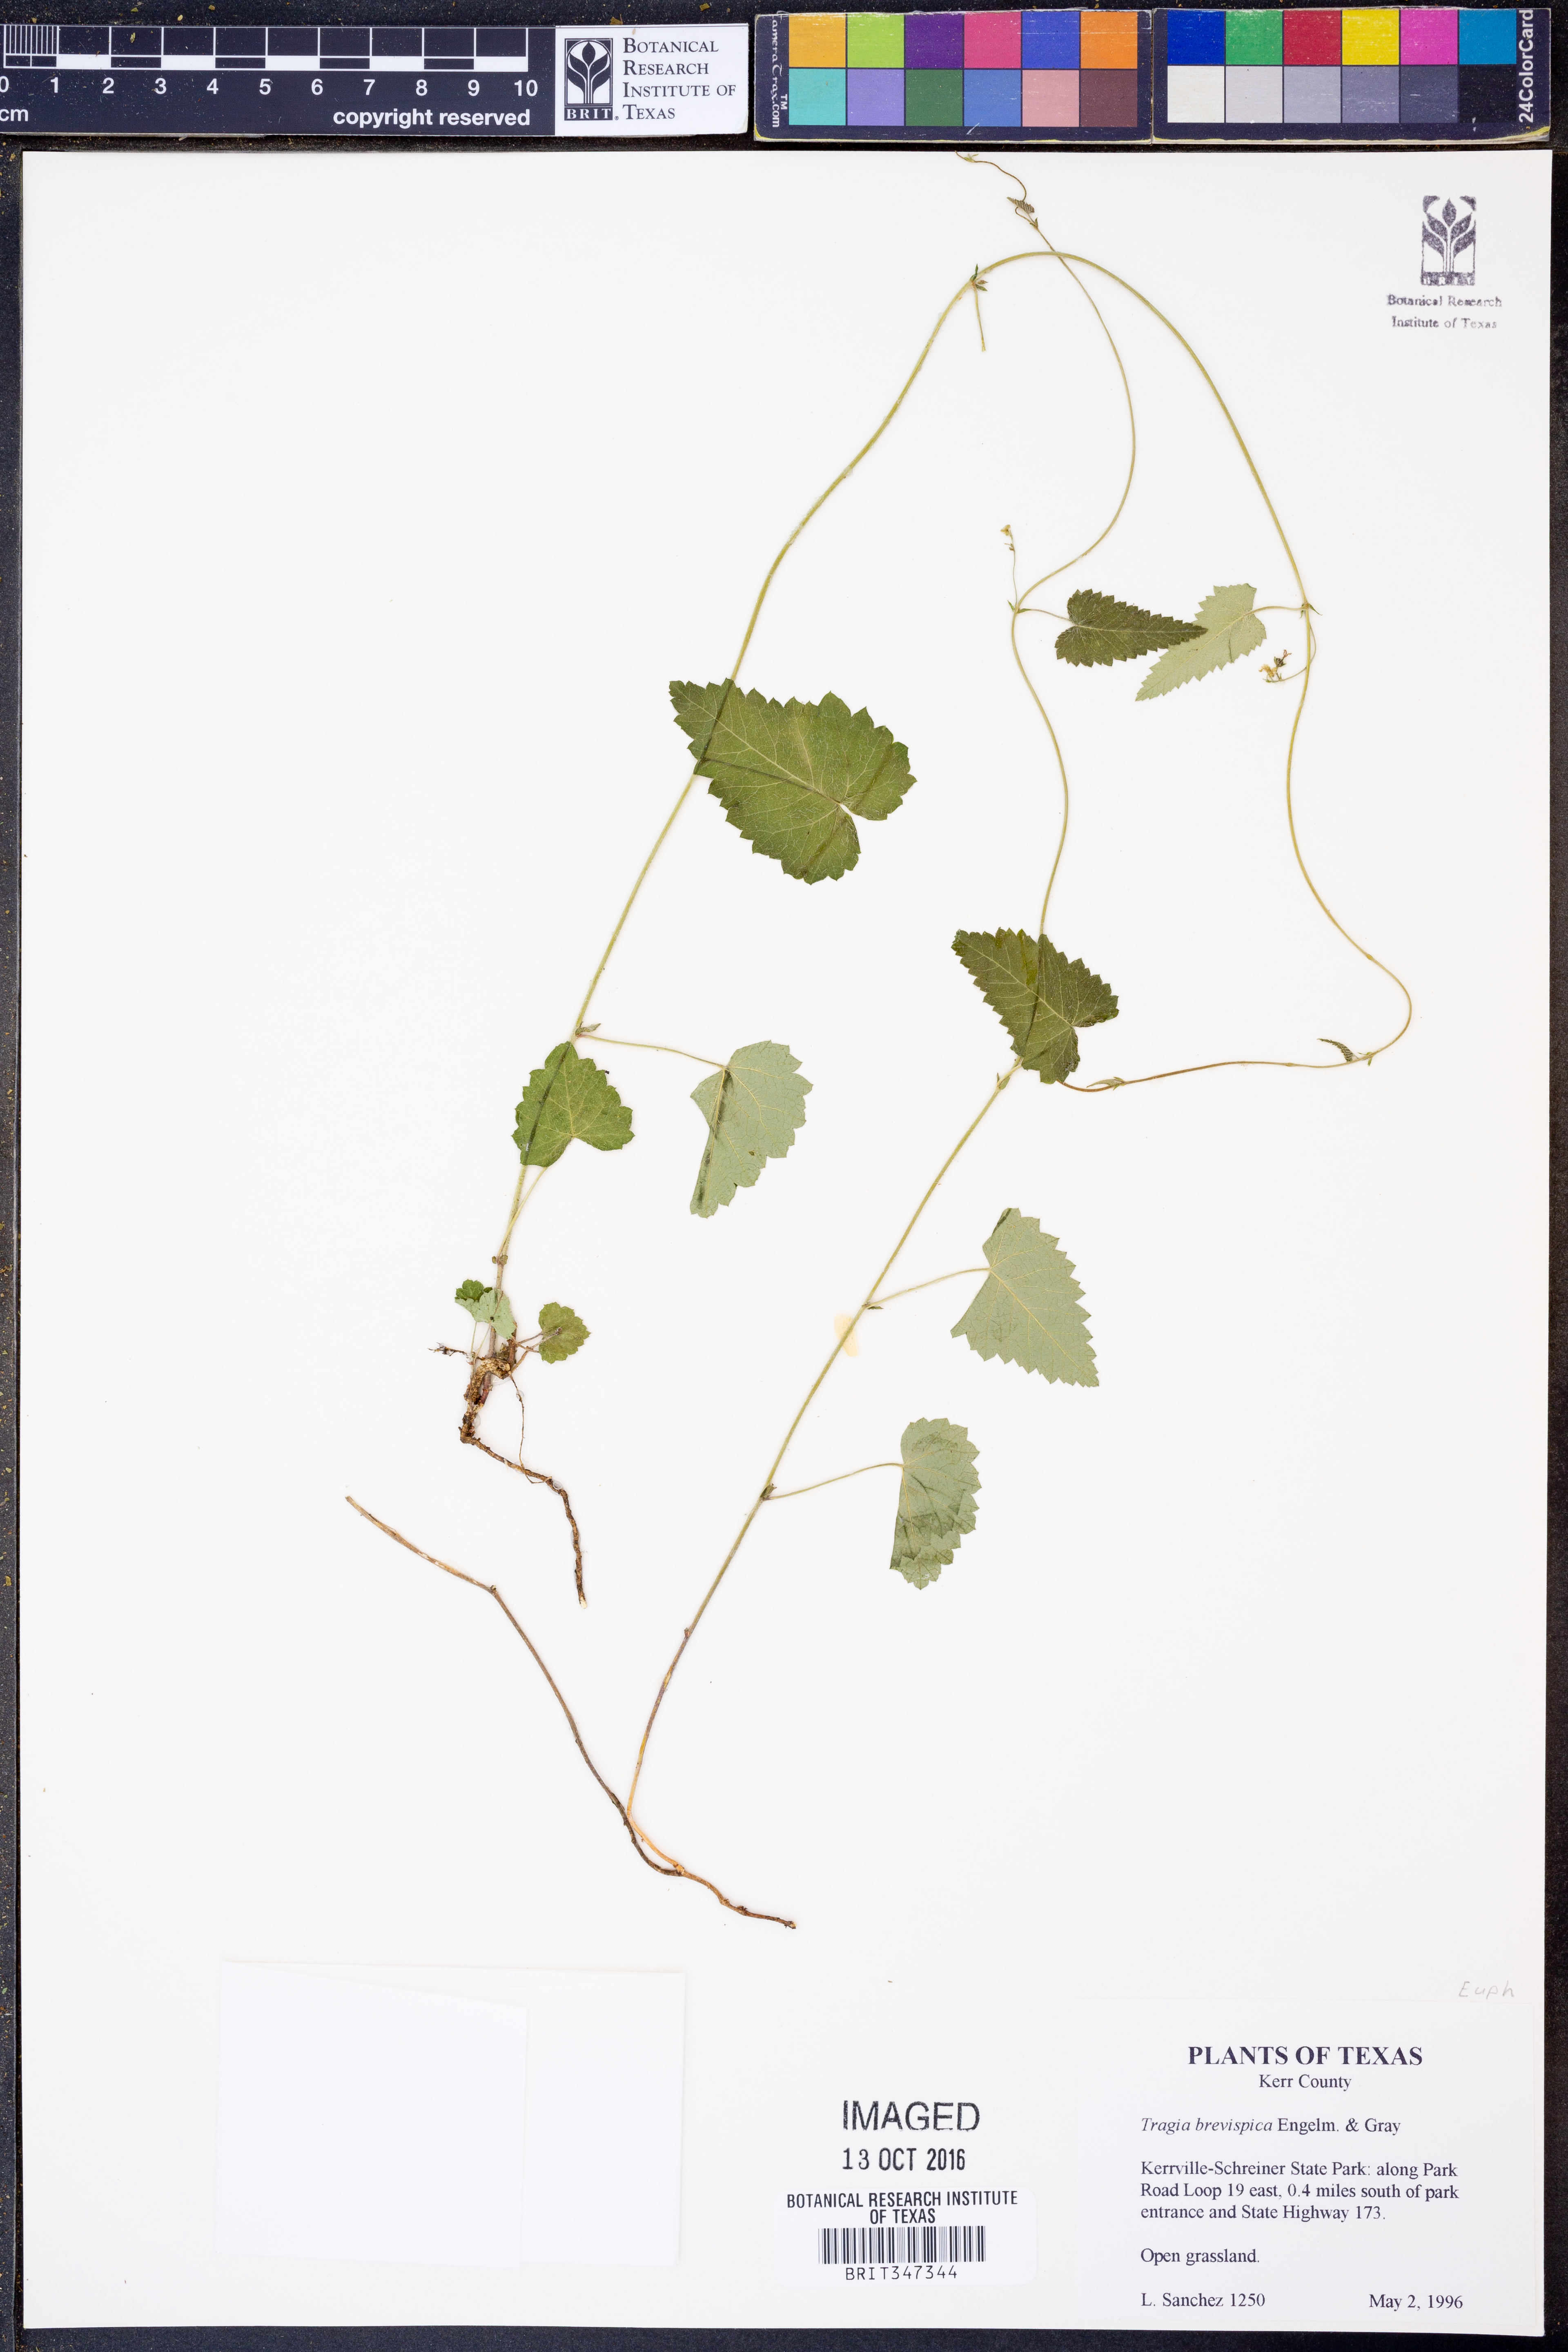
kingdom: Plantae
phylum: Tracheophyta
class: Magnoliopsida
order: Malpighiales
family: Euphorbiaceae
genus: Tragia
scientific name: Tragia brevispica
